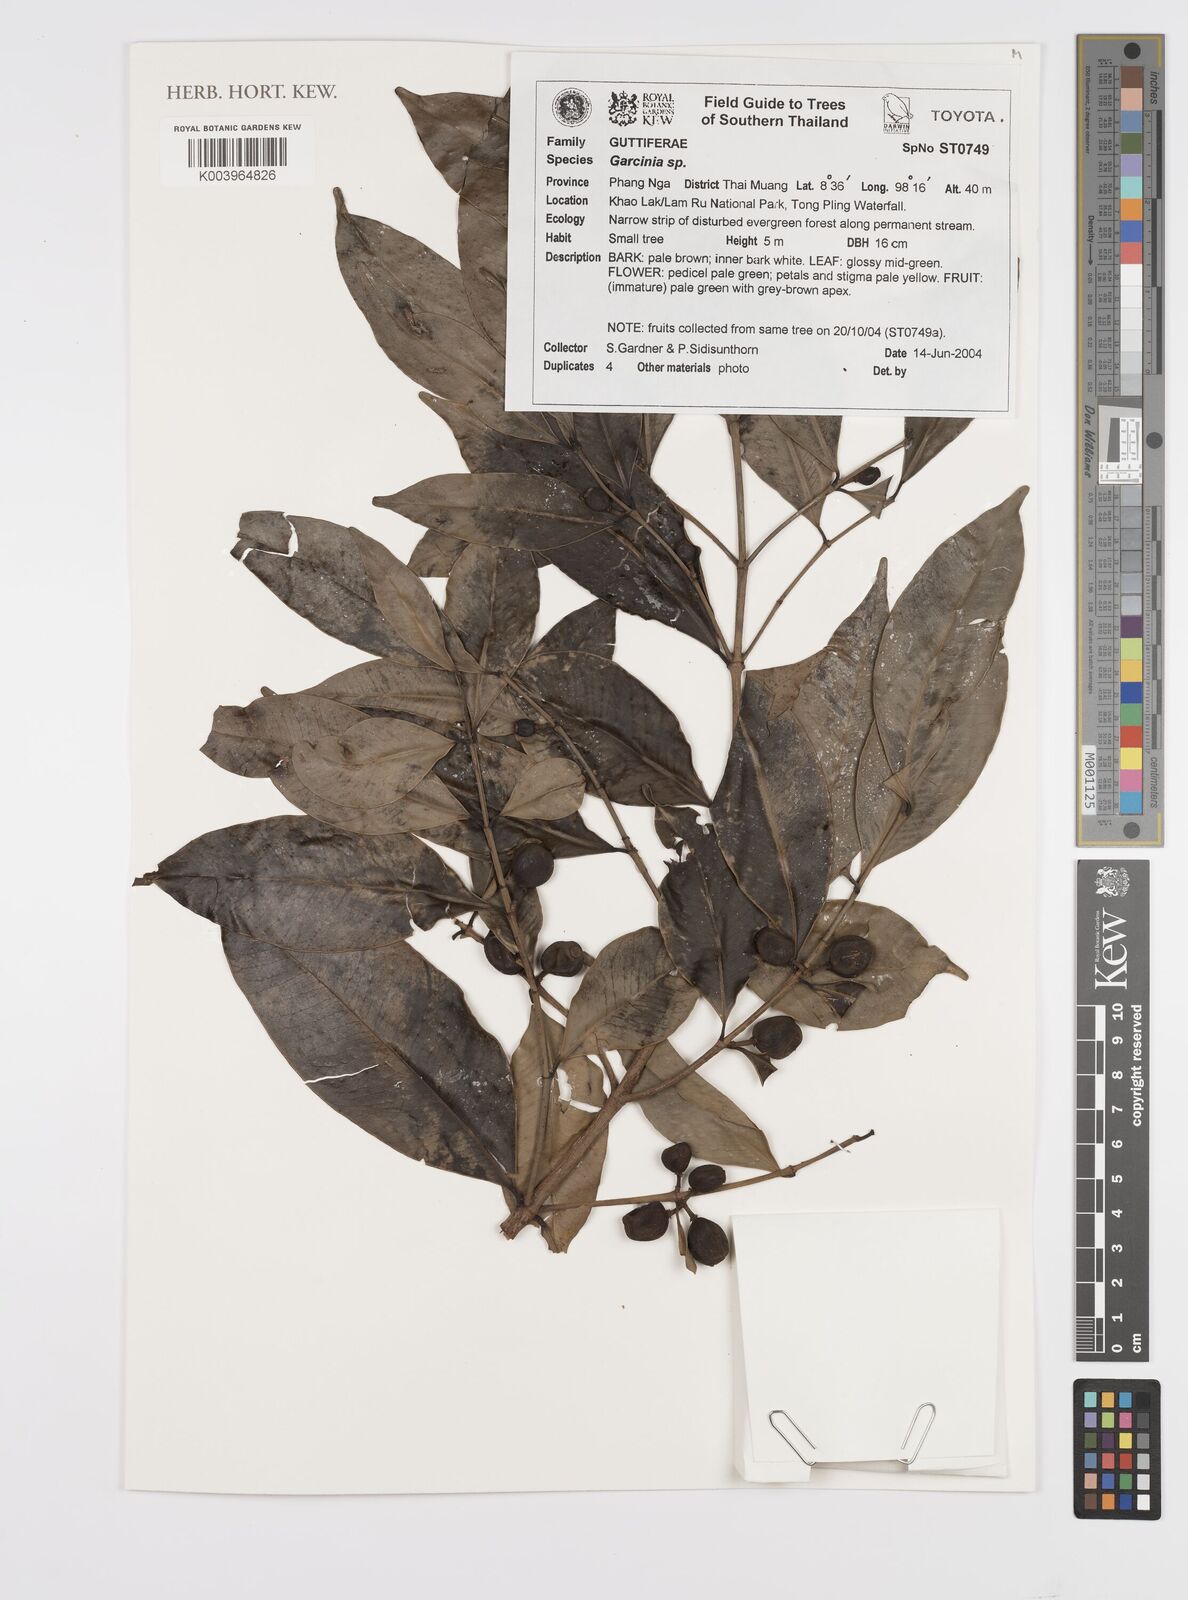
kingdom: Plantae
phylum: Tracheophyta
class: Magnoliopsida
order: Malpighiales
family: Clusiaceae
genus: Garcinia
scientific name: Garcinia
